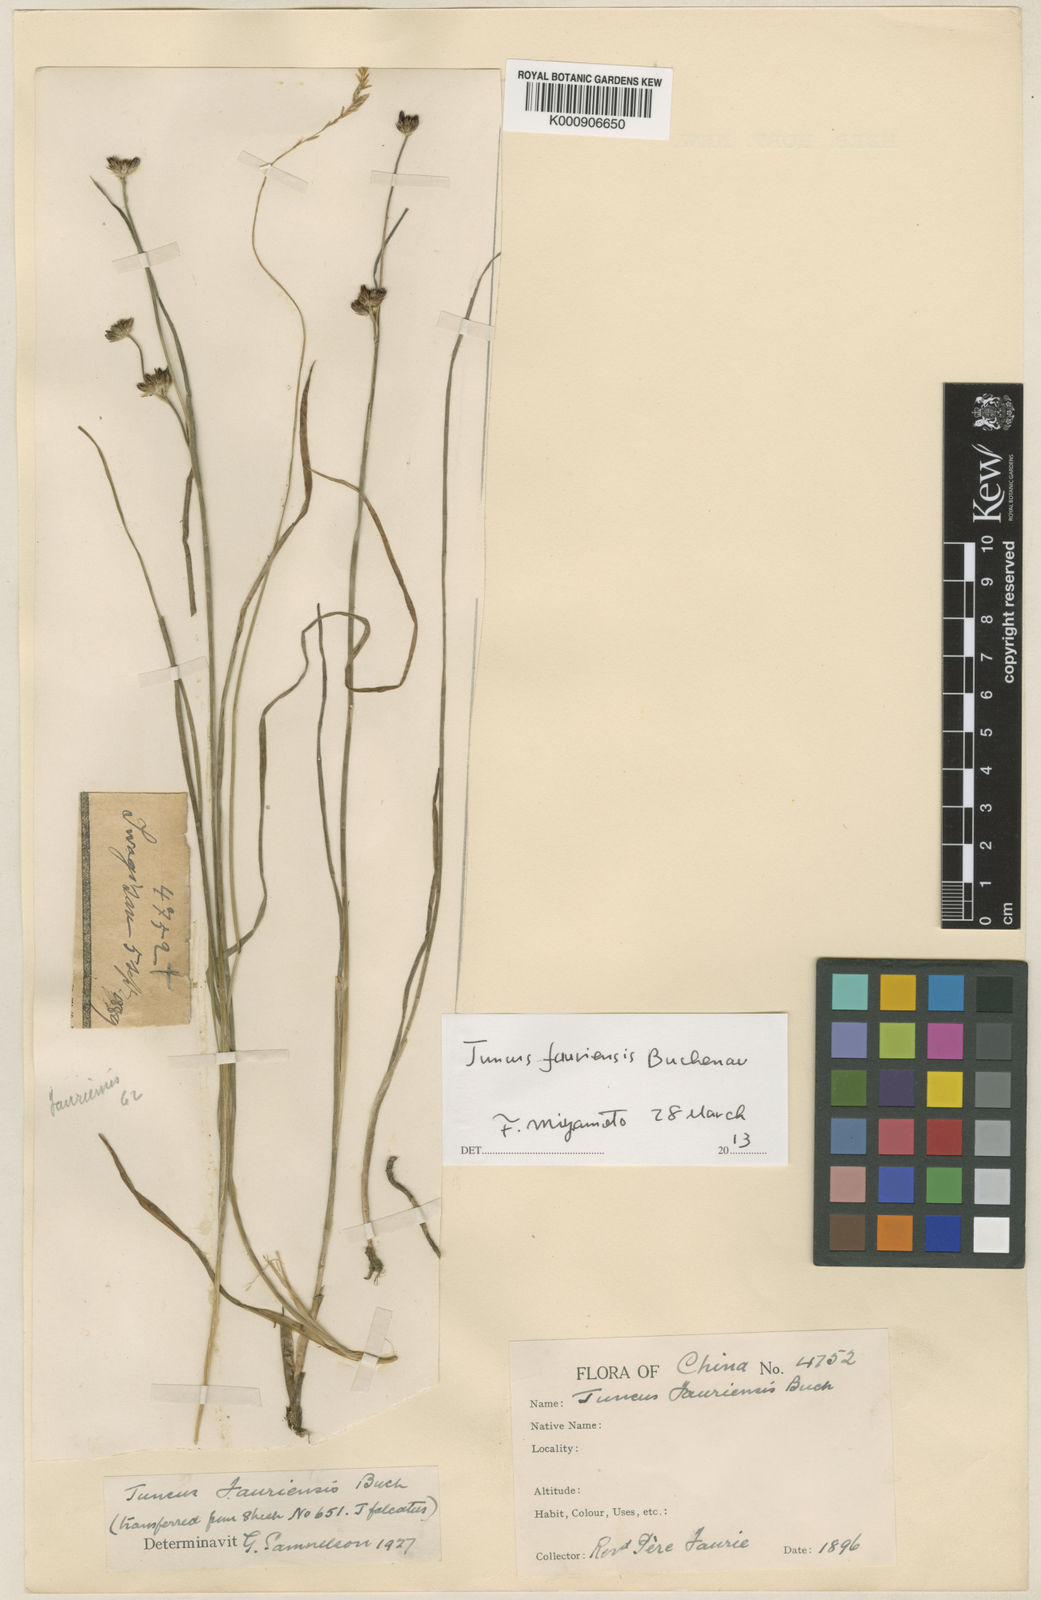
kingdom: Plantae
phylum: Tracheophyta
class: Liliopsida
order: Poales
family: Juncaceae
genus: Juncus
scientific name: Juncus fauriensis
